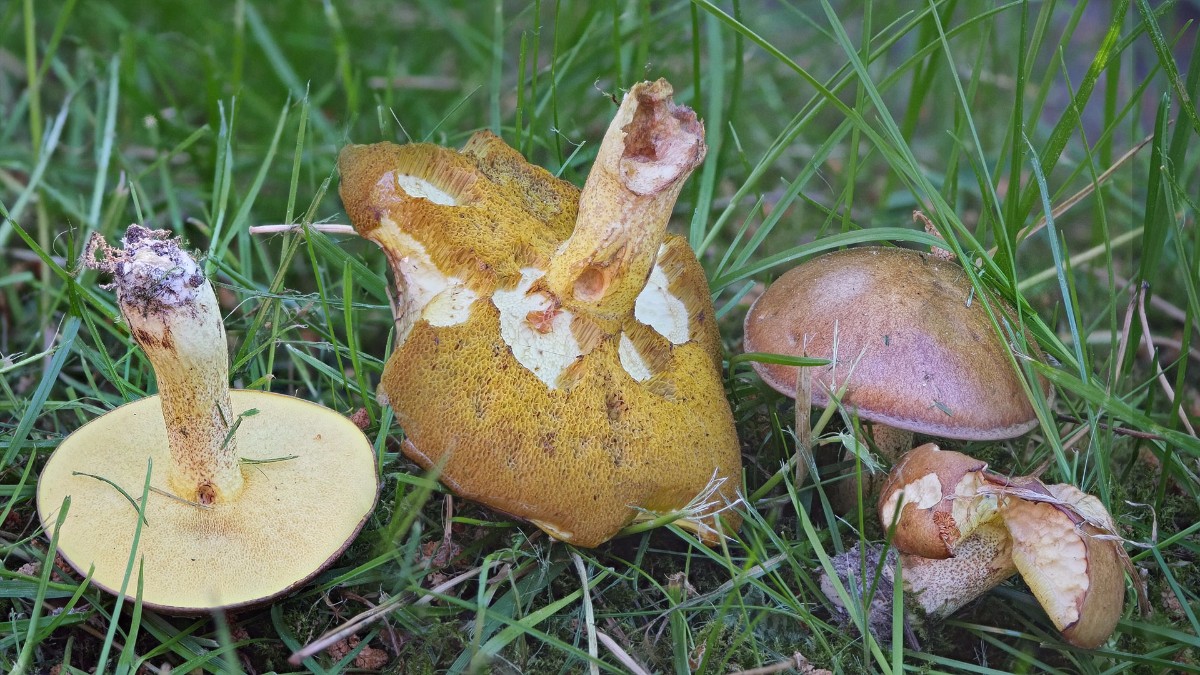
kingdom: Fungi
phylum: Basidiomycota
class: Agaricomycetes
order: Boletales
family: Suillaceae
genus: Suillus
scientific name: Suillus granulatus
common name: kornet slimrørhat
